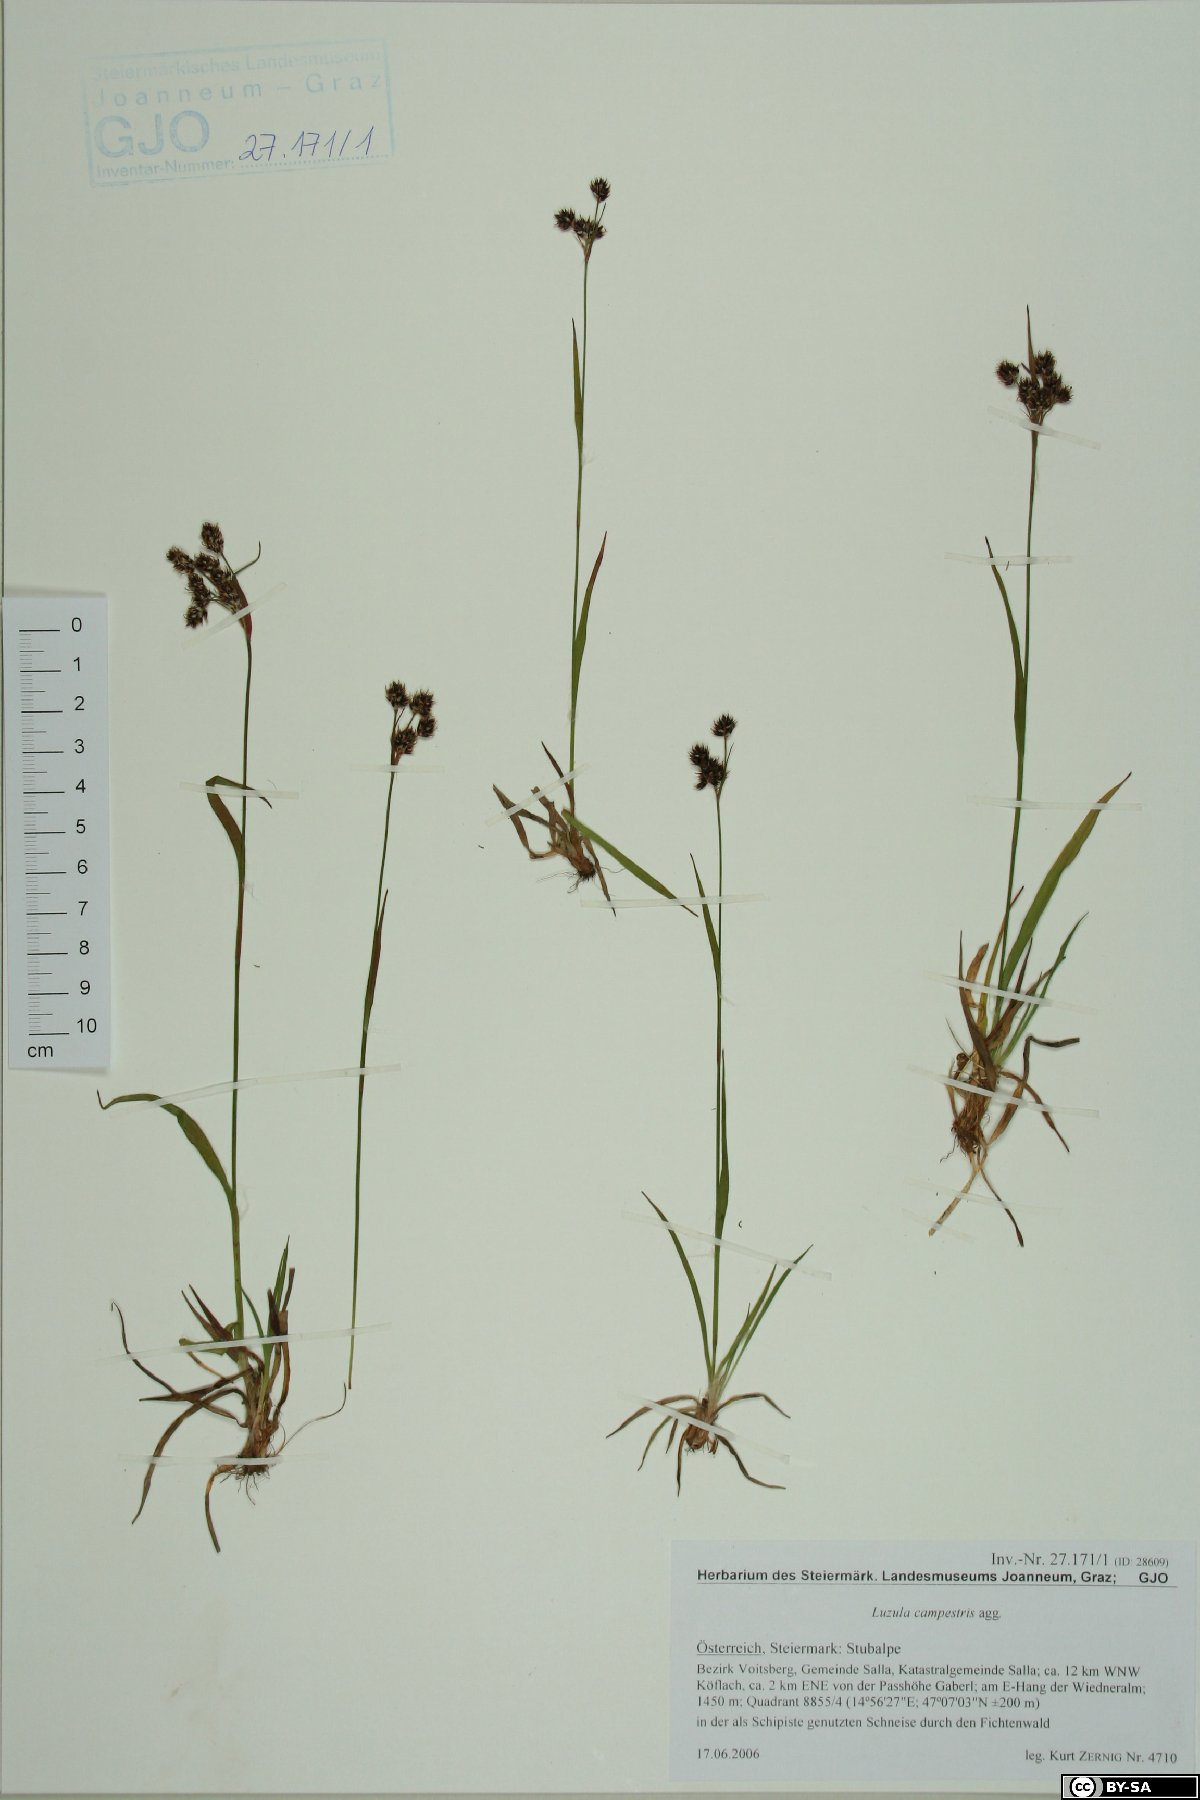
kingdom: Plantae
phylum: Tracheophyta
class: Liliopsida
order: Poales
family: Juncaceae
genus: Luzula
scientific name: Luzula campestris
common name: Field wood-rush
